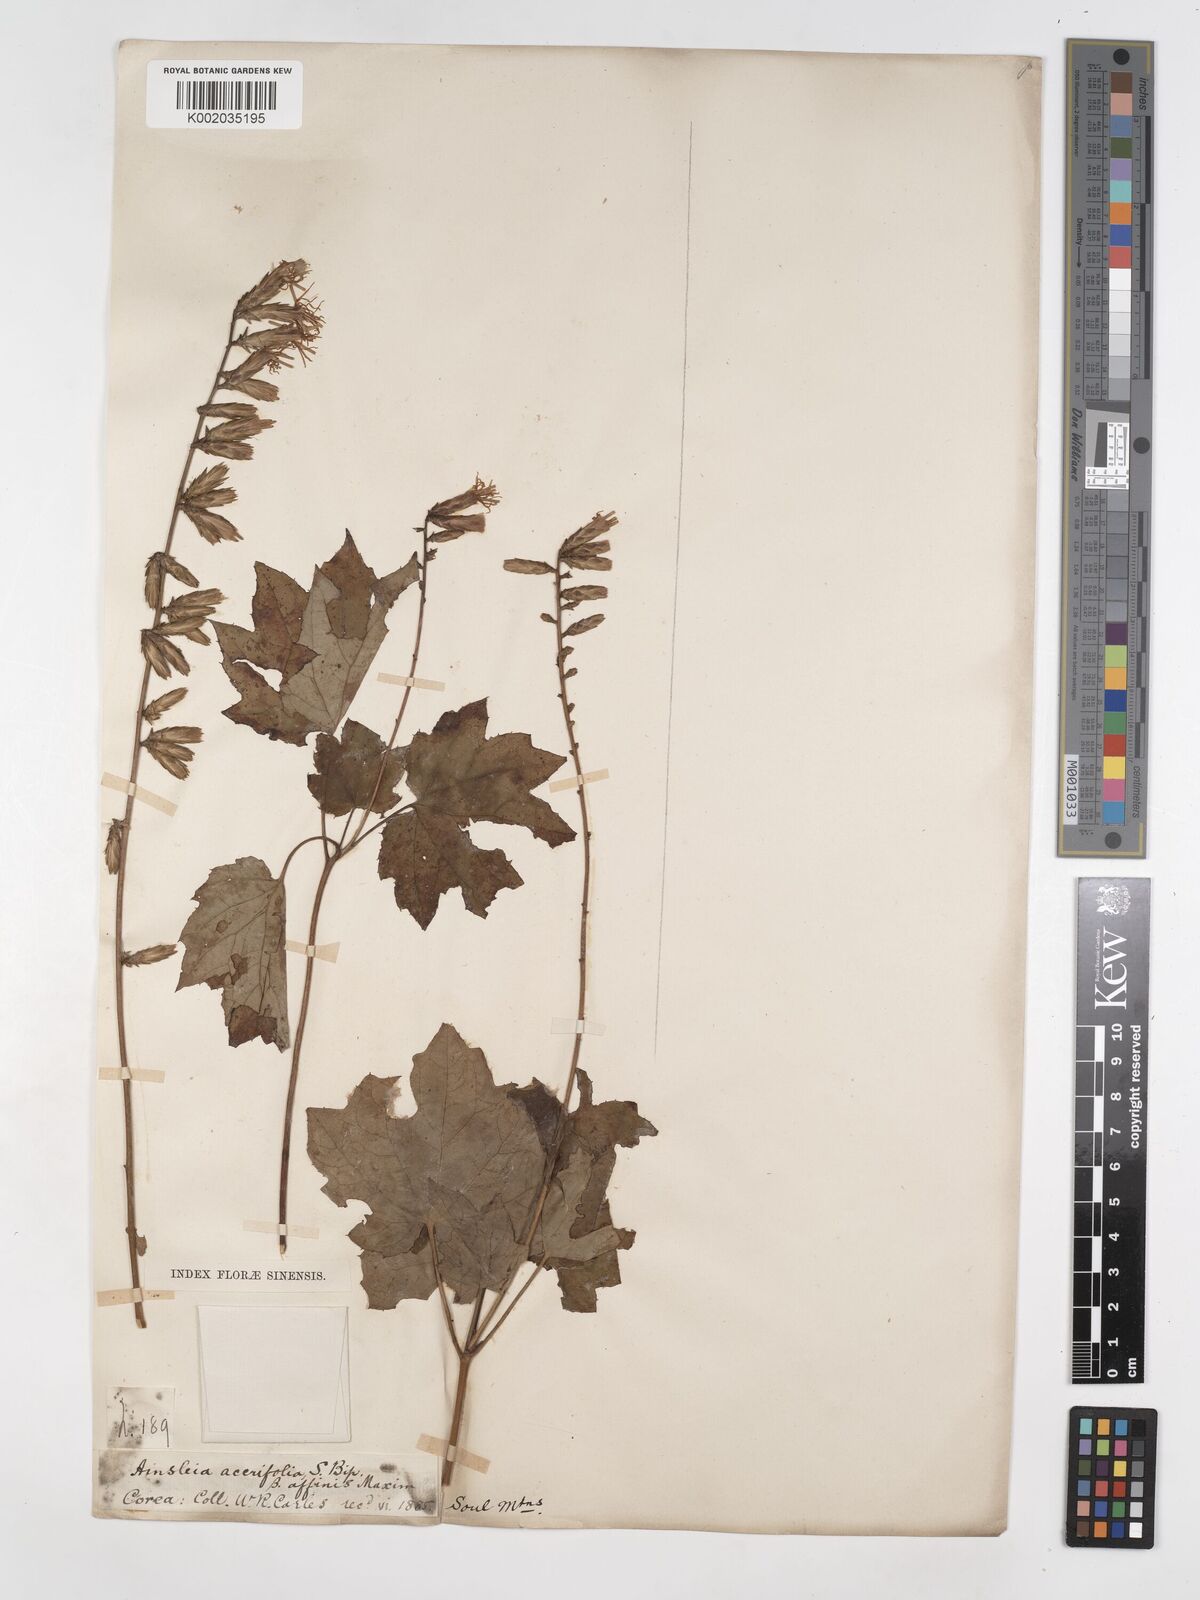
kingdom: Plantae
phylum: Tracheophyta
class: Magnoliopsida
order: Asterales
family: Asteraceae
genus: Ainsliaea
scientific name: Ainsliaea acerifolia
